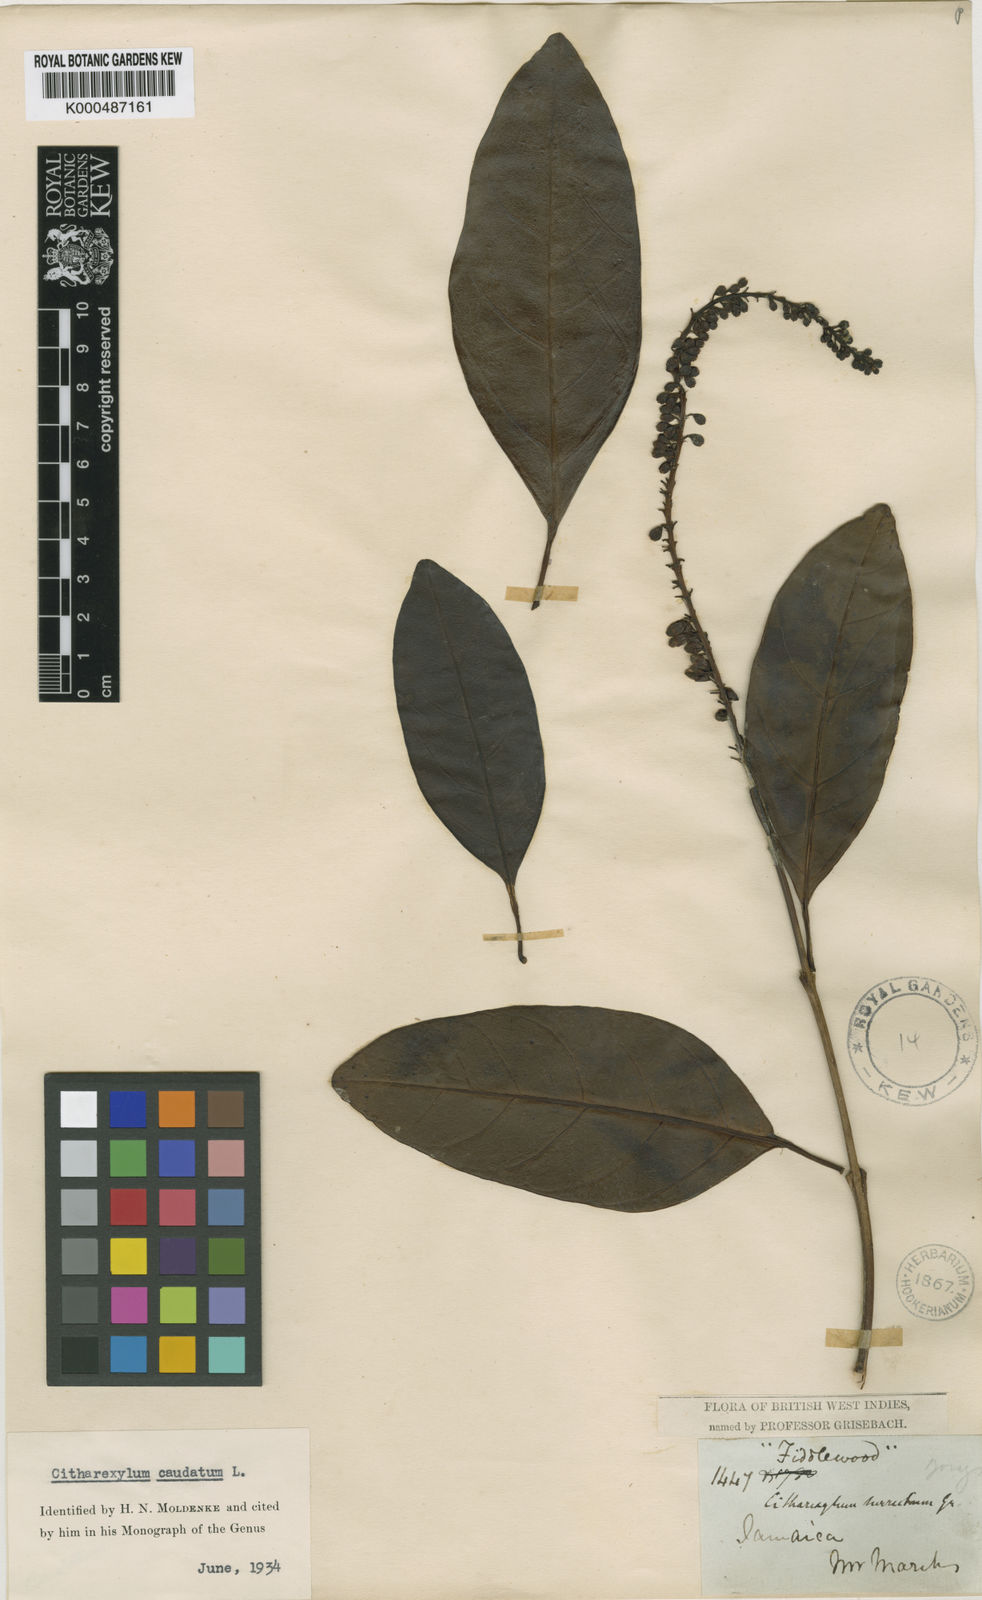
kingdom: Plantae
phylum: Tracheophyta
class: Magnoliopsida
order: Lamiales
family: Verbenaceae
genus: Citharexylum
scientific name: Citharexylum caudatum
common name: Fiddlewood
